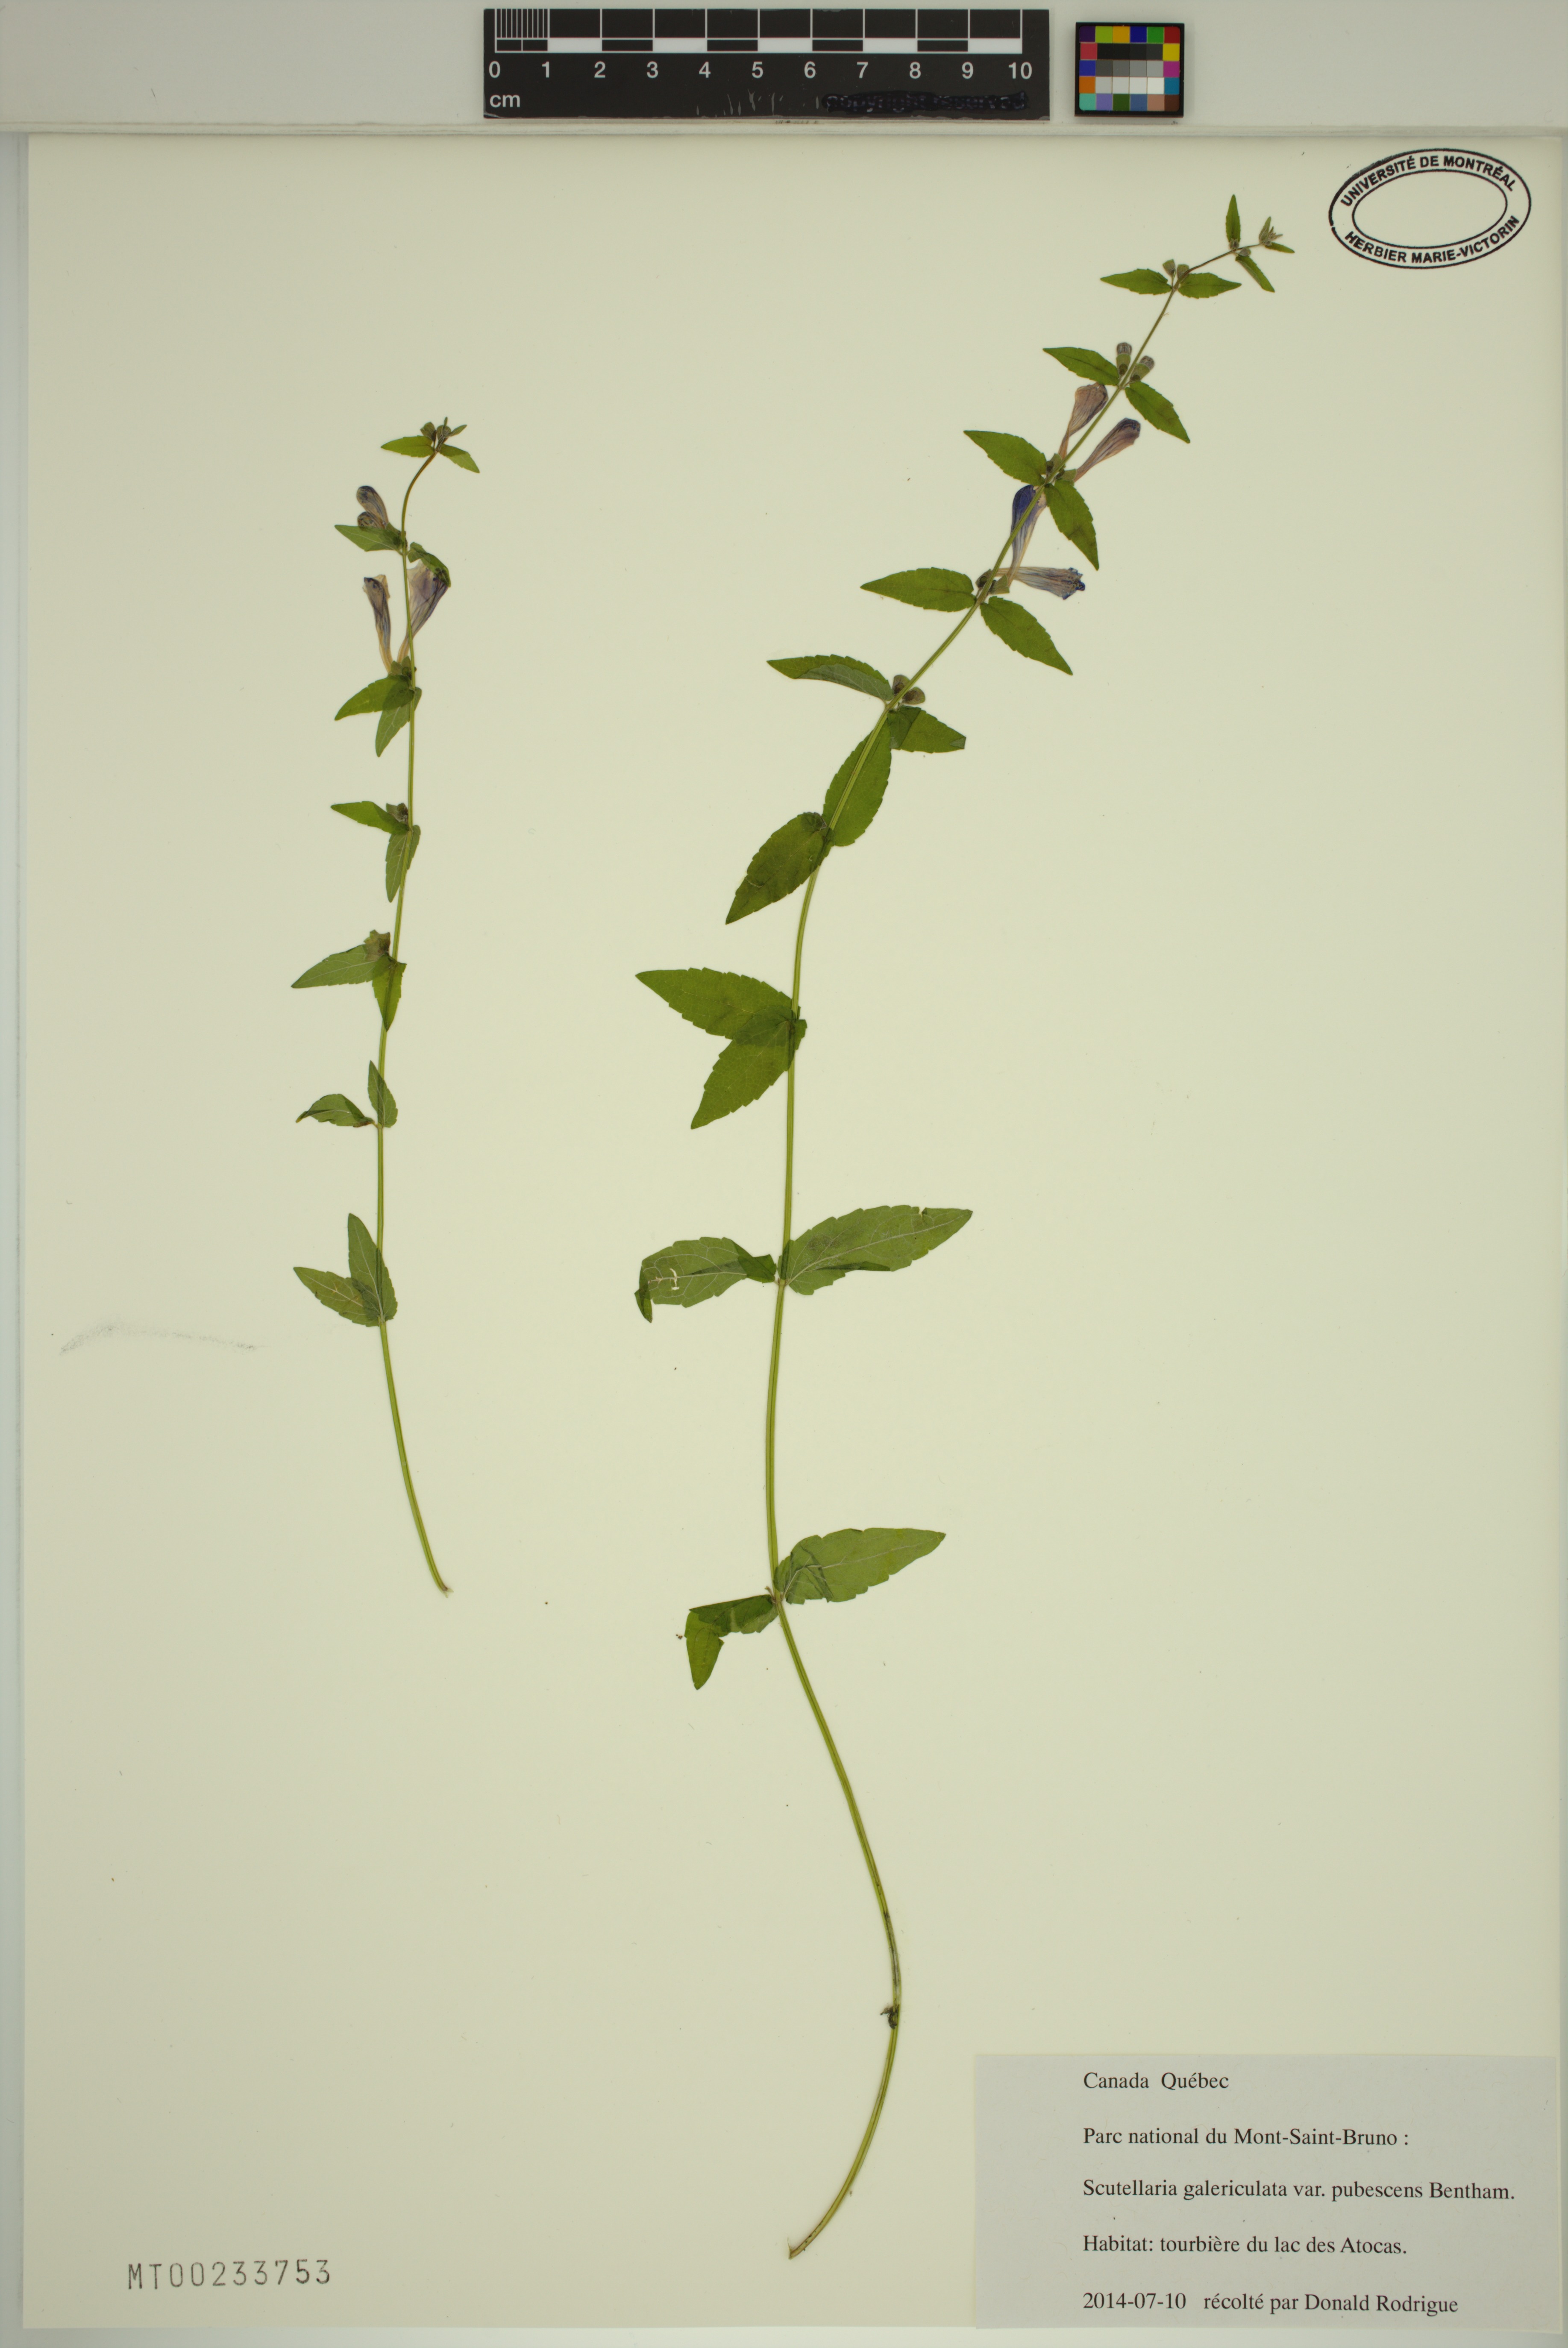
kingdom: Plantae
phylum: Tracheophyta
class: Magnoliopsida
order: Lamiales
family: Lamiaceae
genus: Scutellaria
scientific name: Scutellaria nicholsonii
